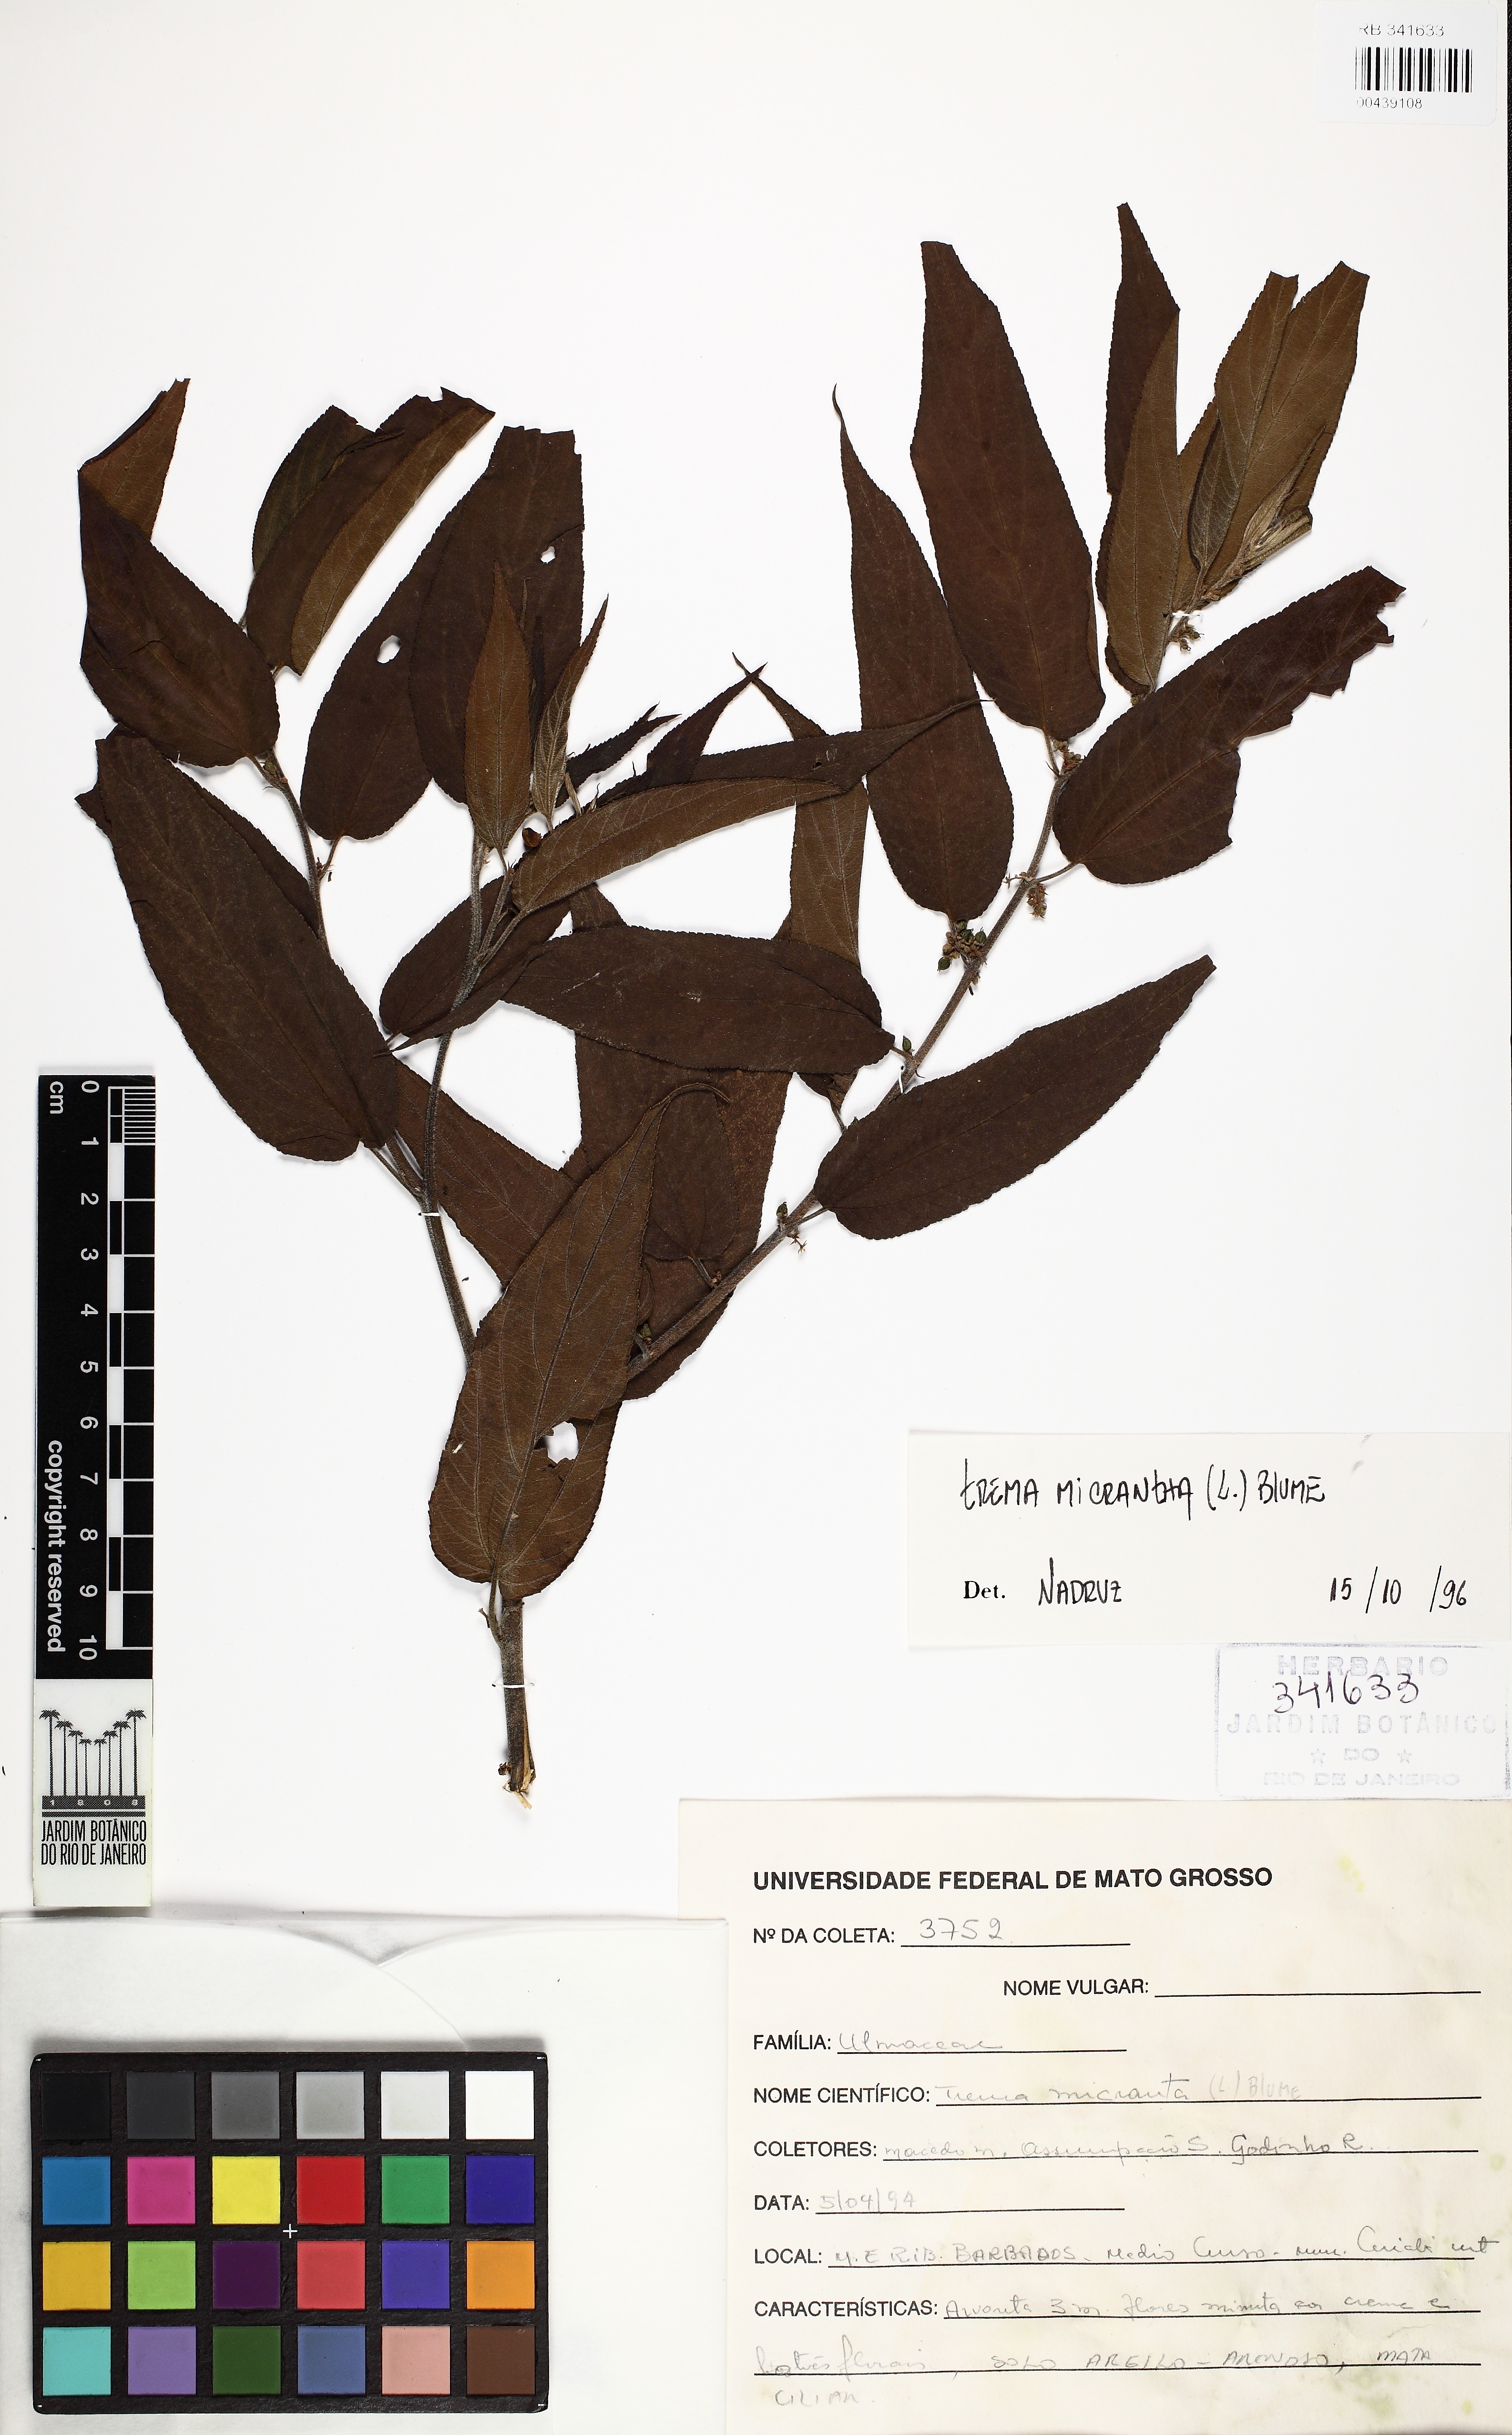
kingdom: Plantae
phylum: Tracheophyta
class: Magnoliopsida
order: Rosales
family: Cannabaceae
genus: Trema
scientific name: Trema micranthum
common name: Jamaican nettletree
